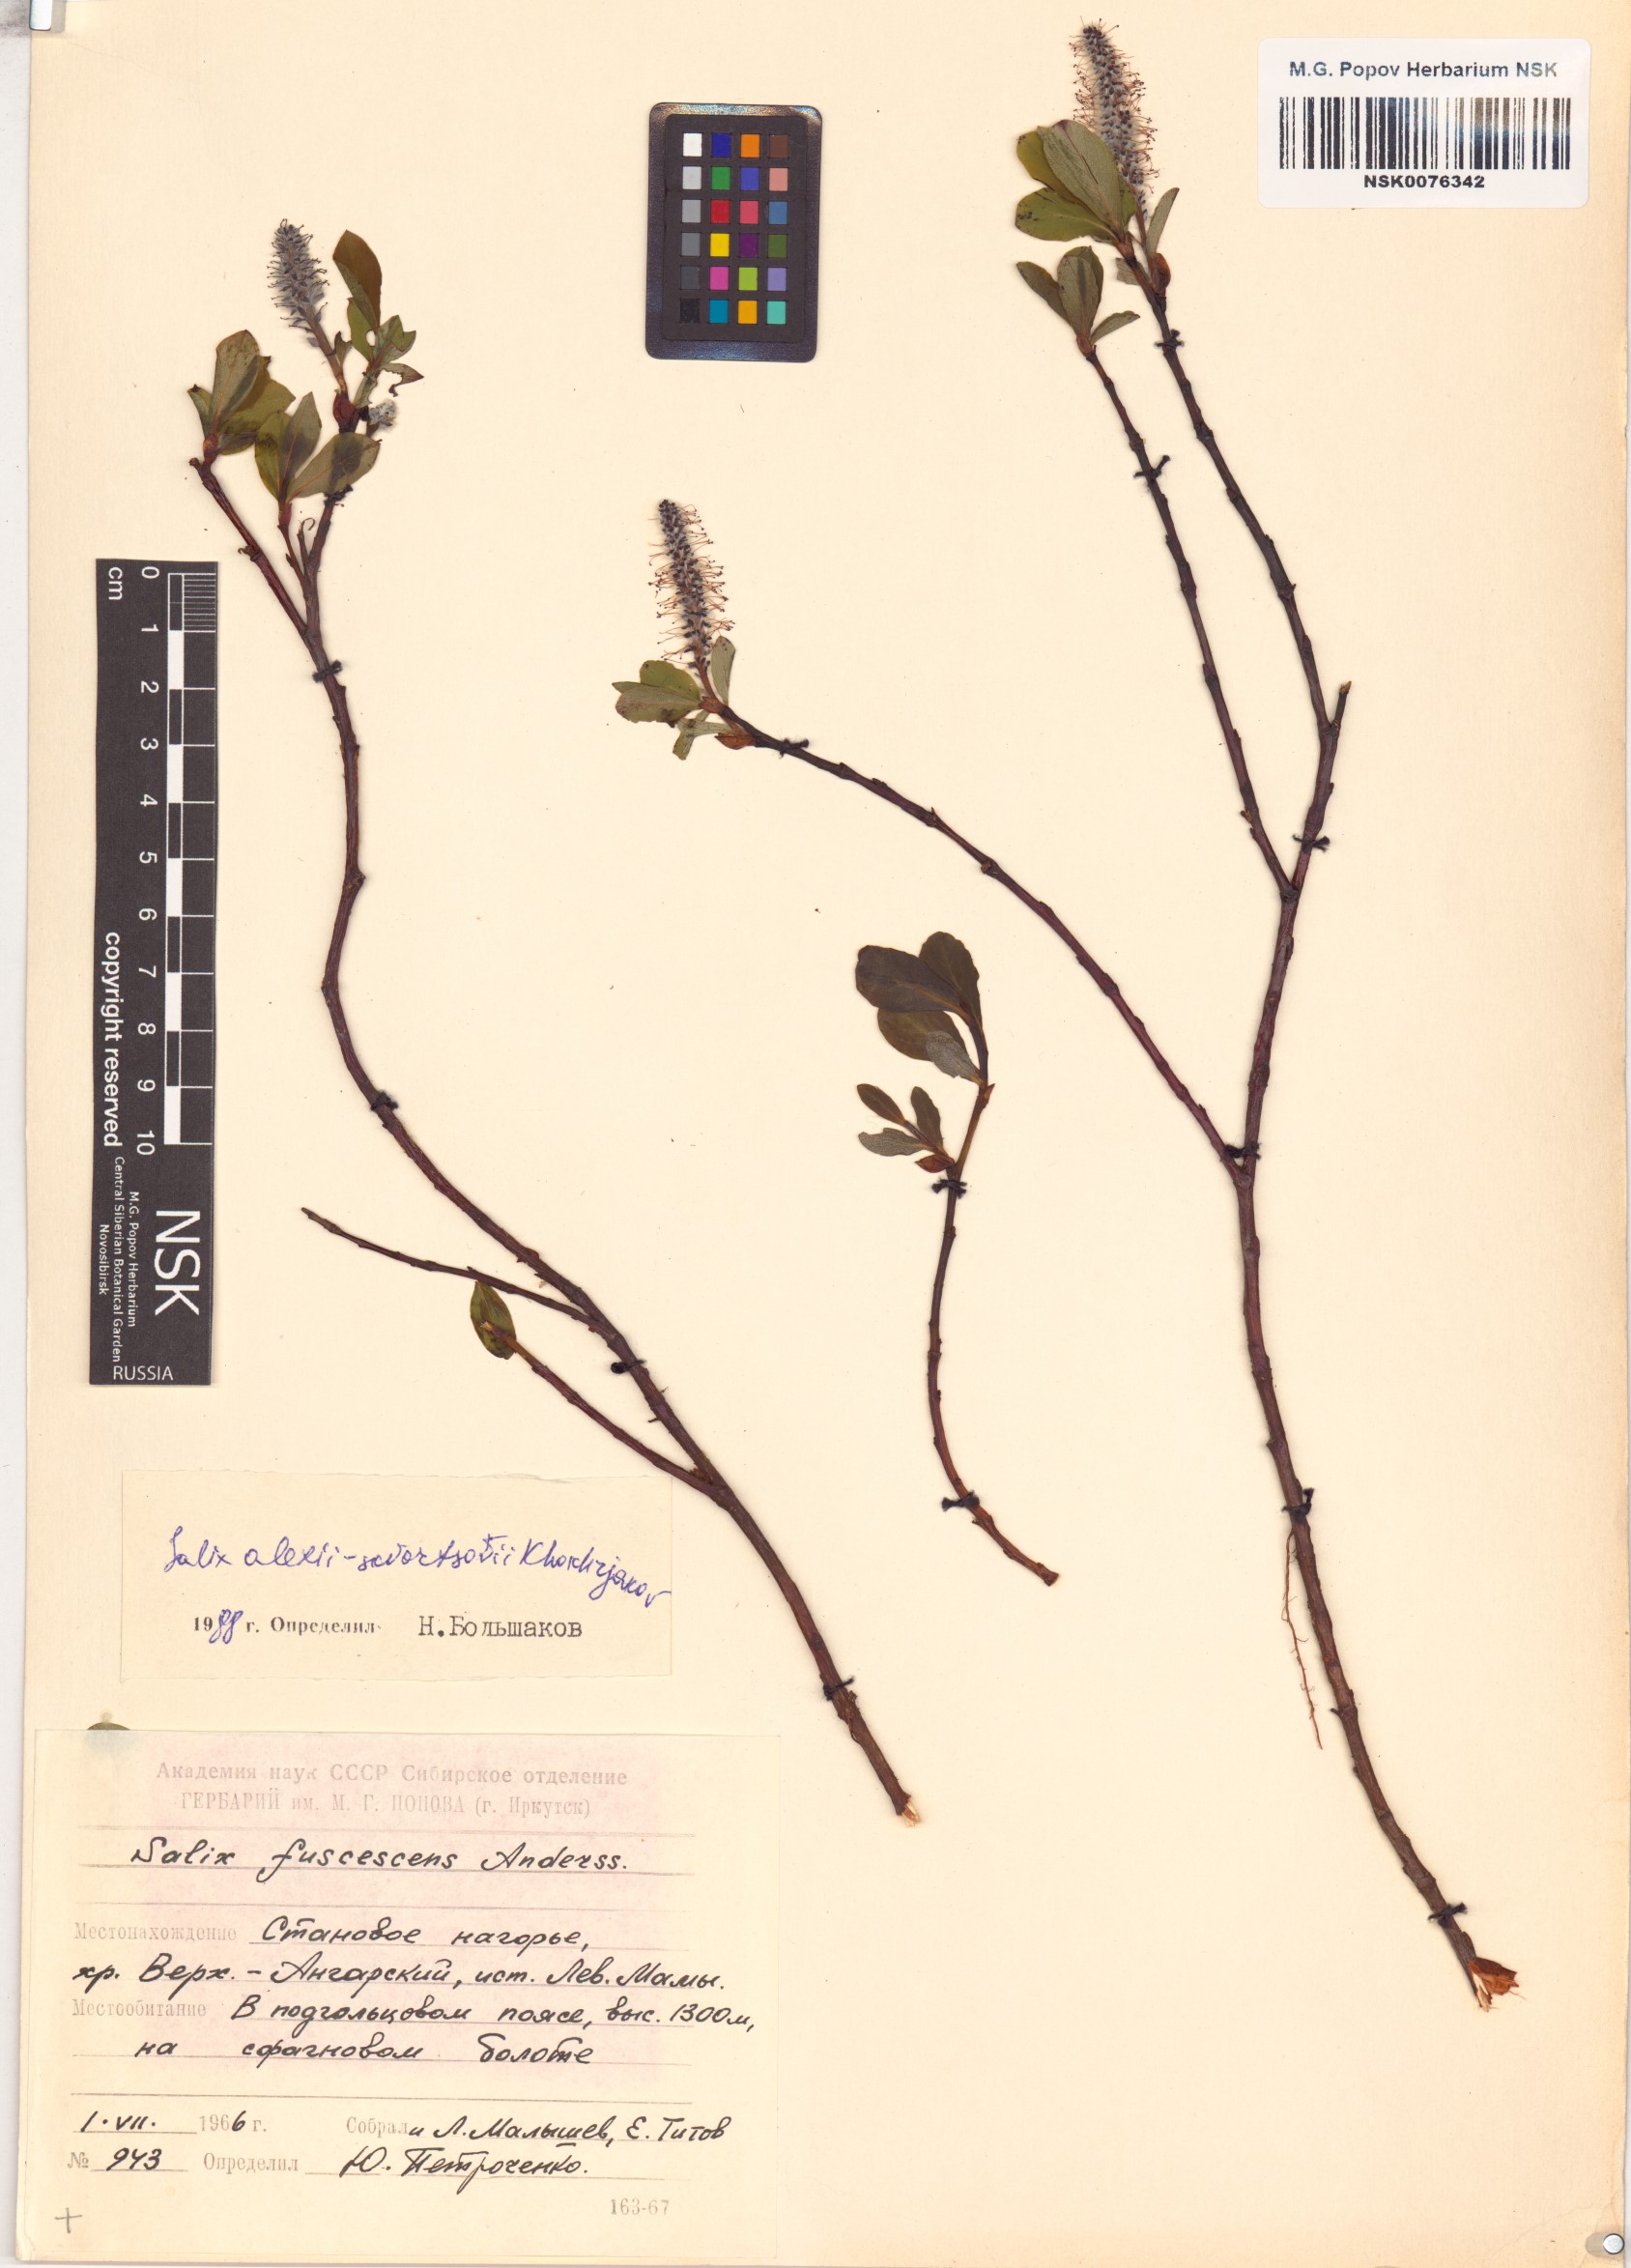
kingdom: Plantae
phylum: Tracheophyta
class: Magnoliopsida
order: Malpighiales
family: Salicaceae
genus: Salix
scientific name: Salix alexii-skvortzovii
